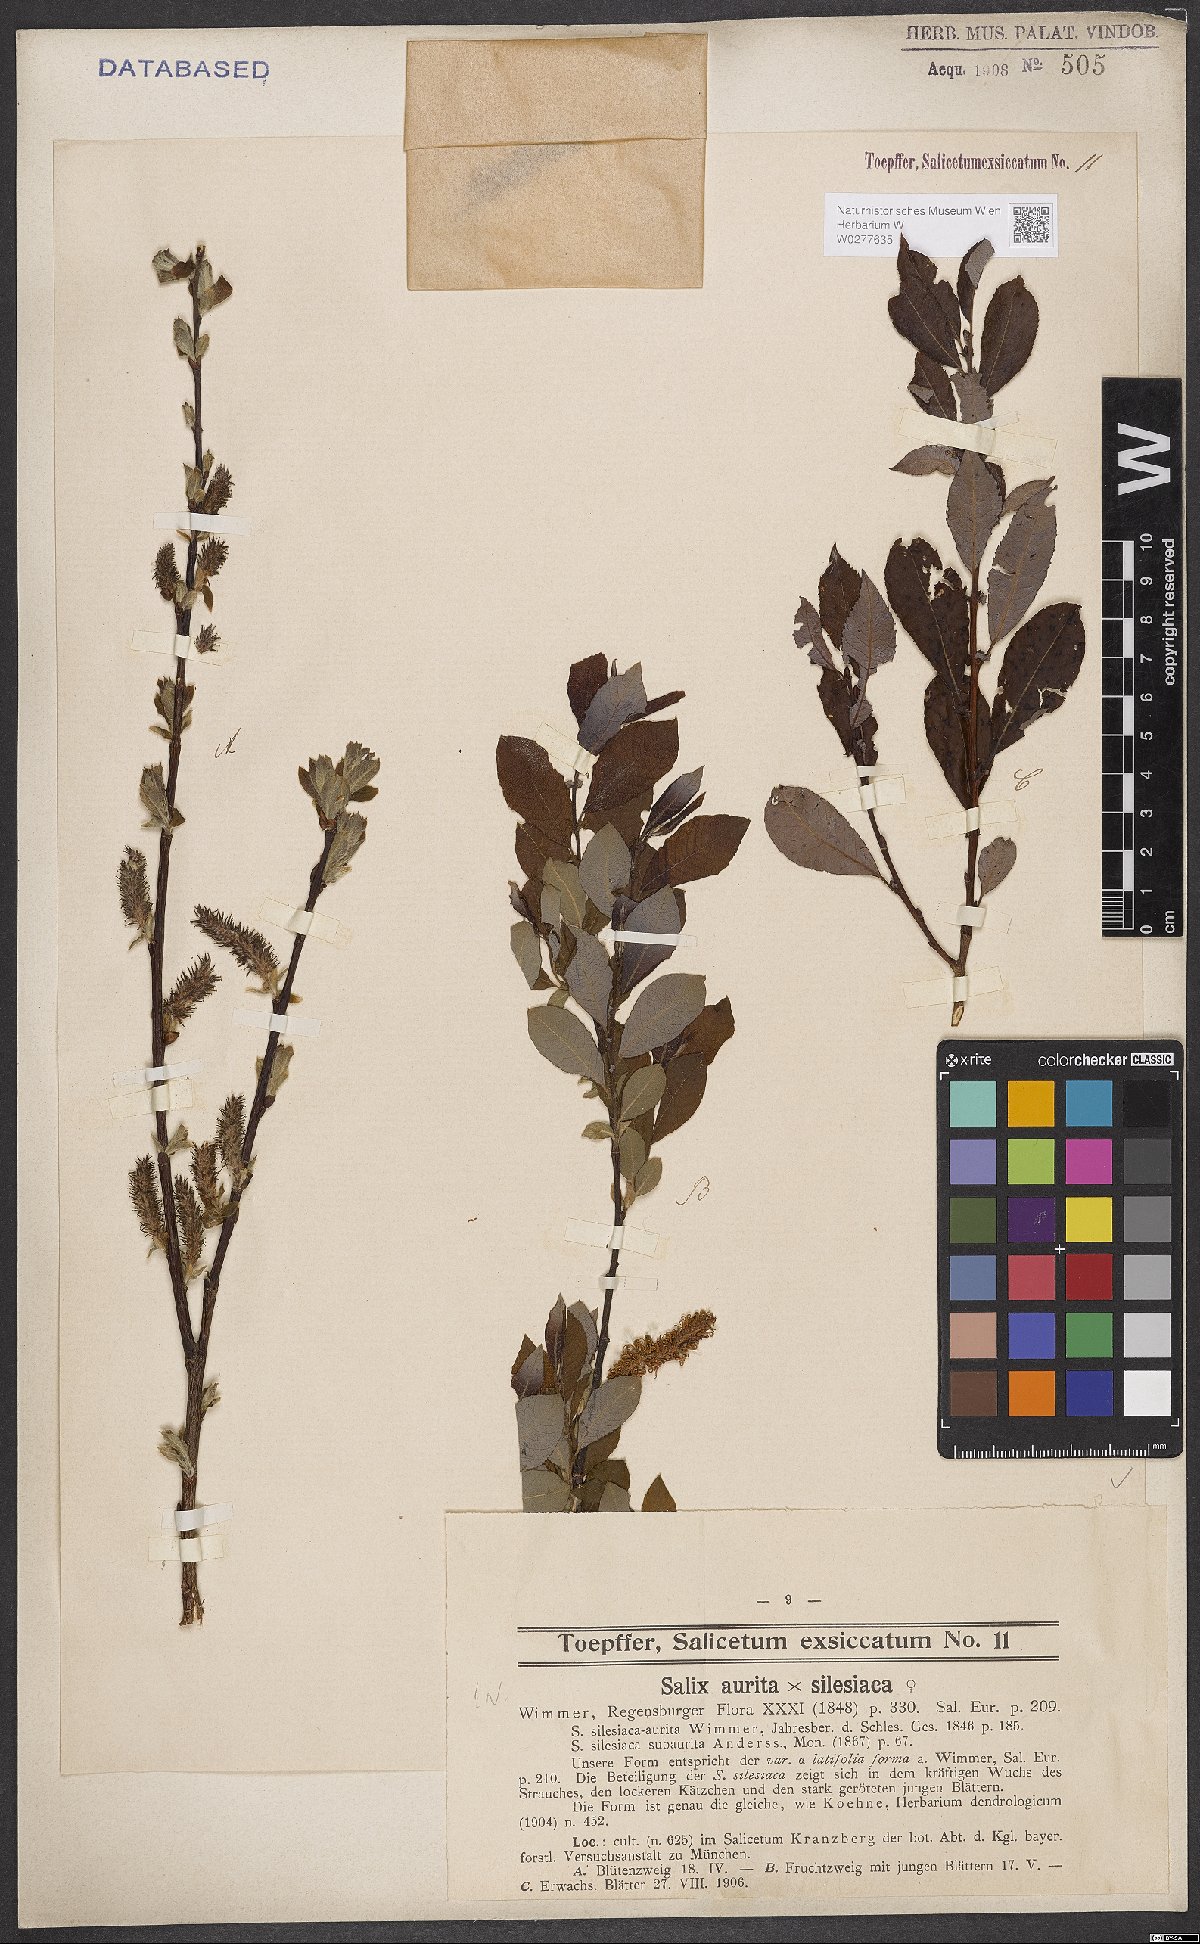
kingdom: Plantae
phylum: Tracheophyta
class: Magnoliopsida
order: Malpighiales
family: Salicaceae
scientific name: Salicaceae
